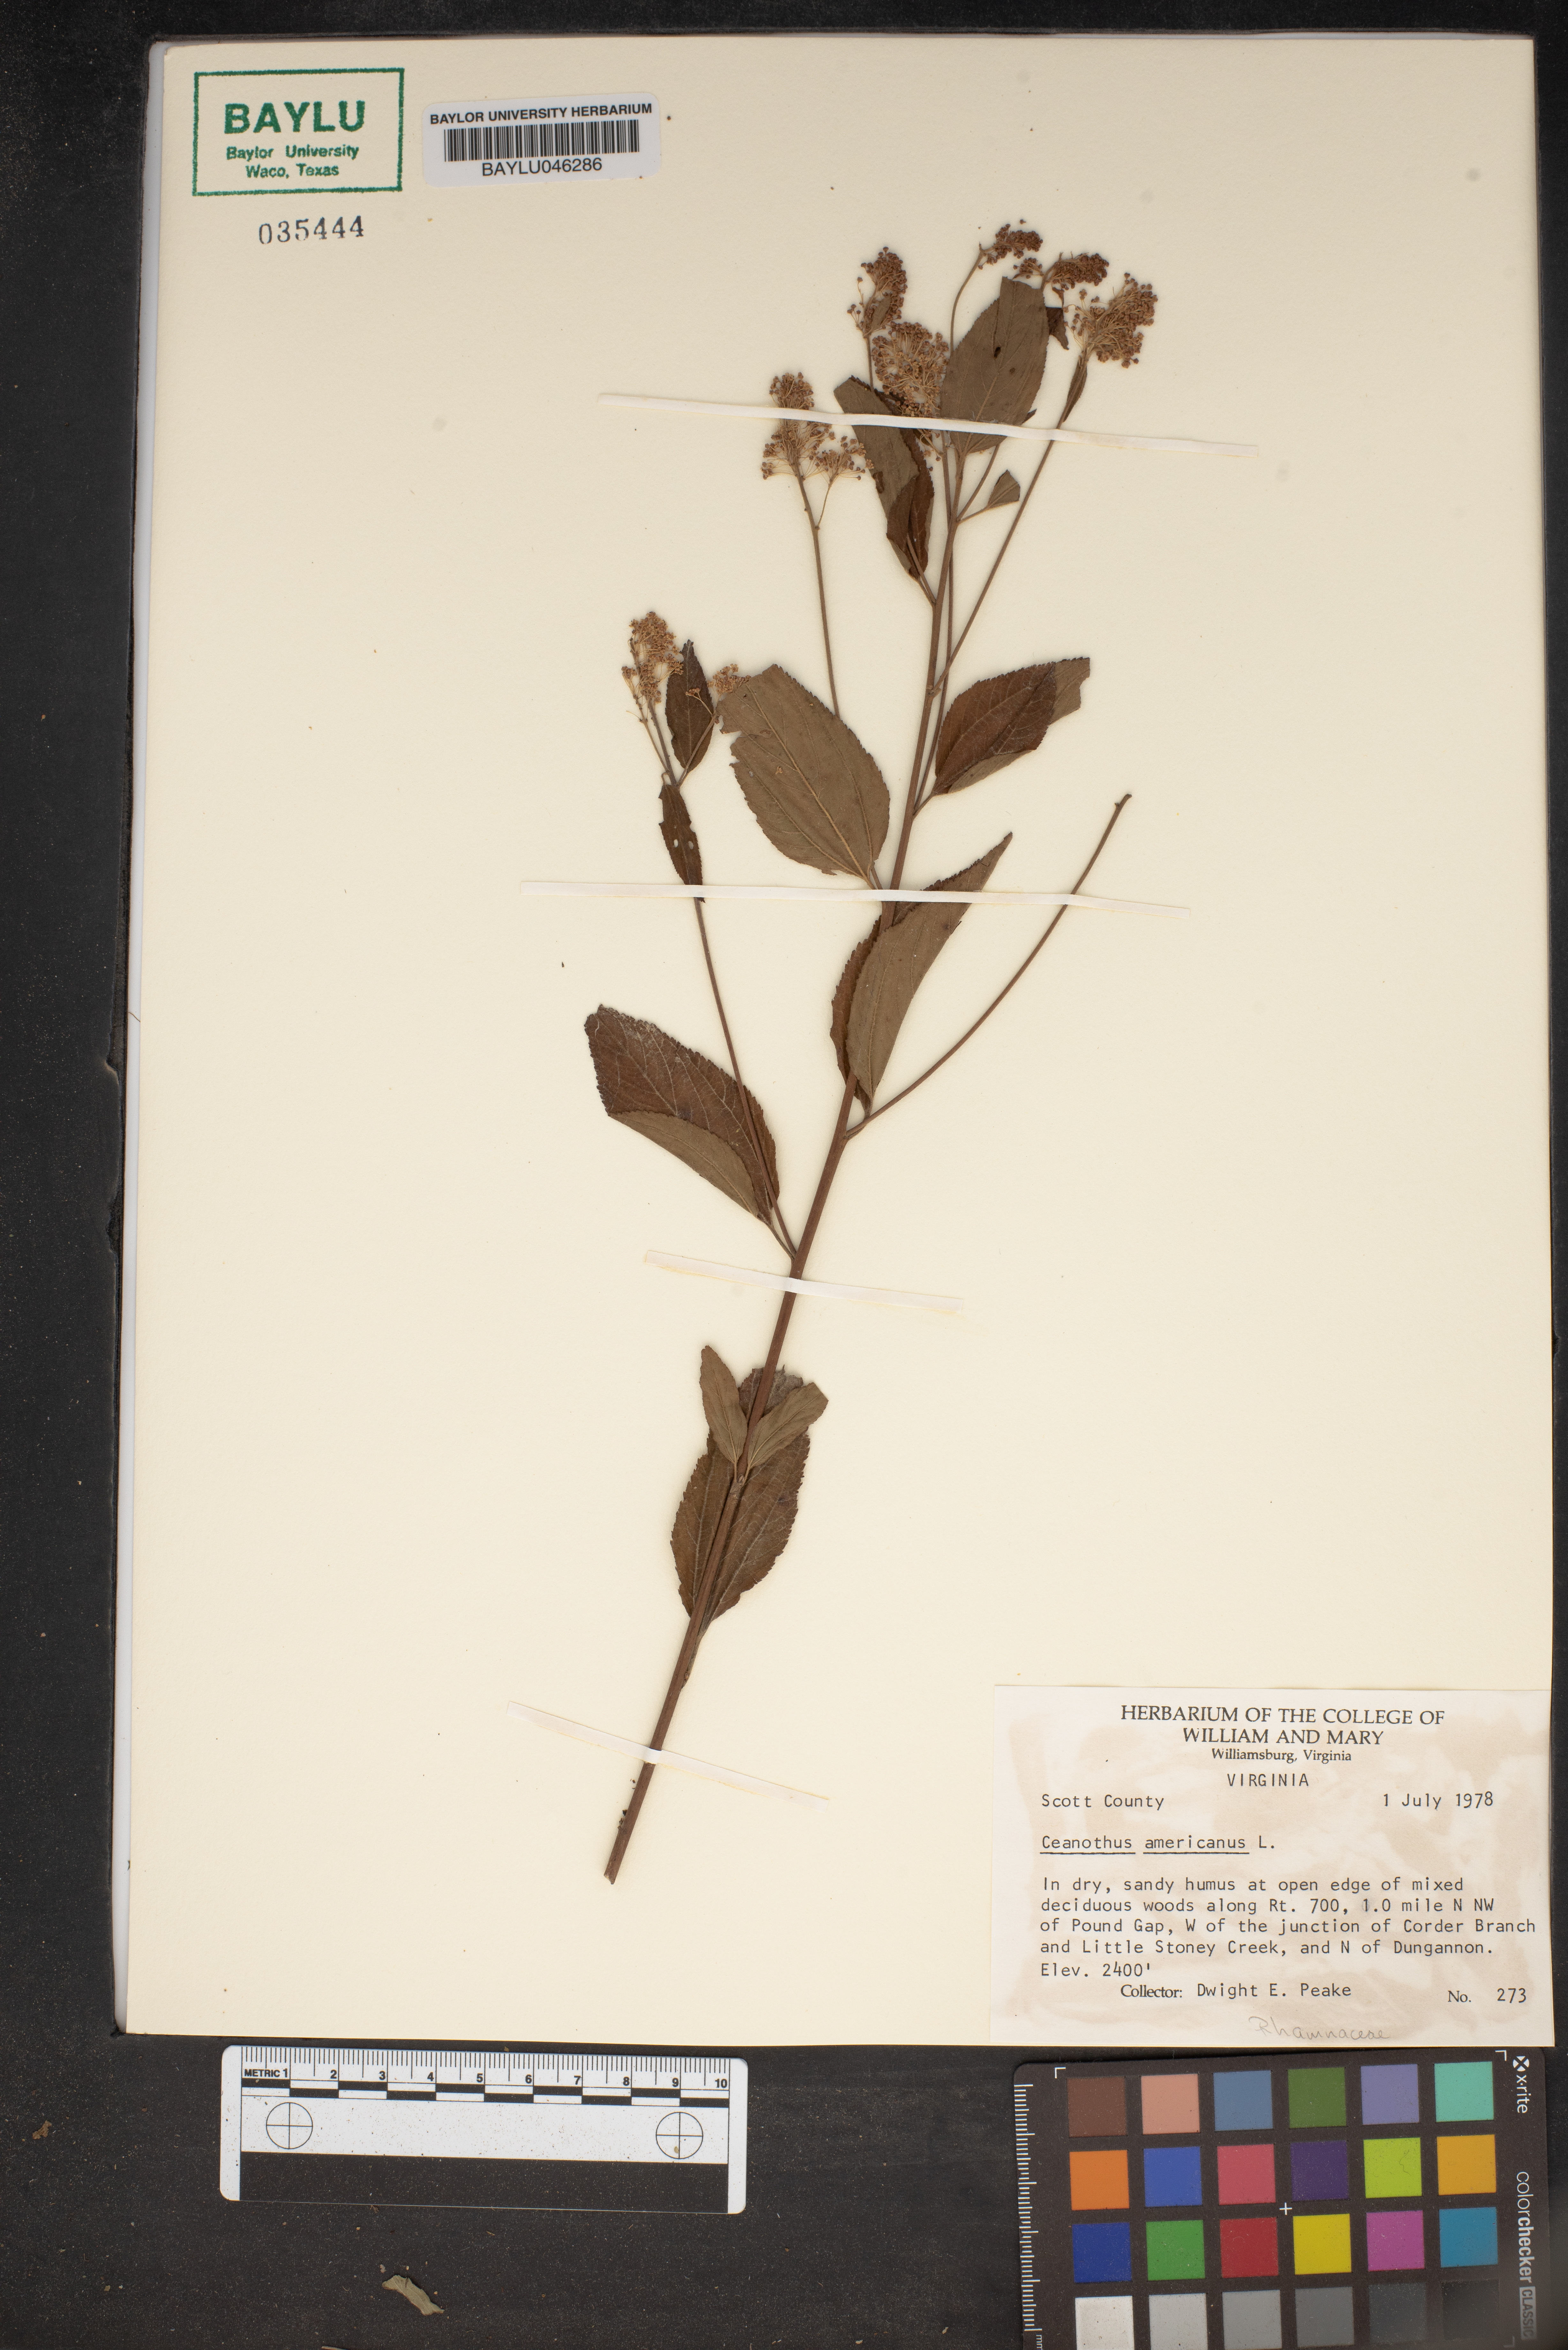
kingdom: Plantae
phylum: Tracheophyta
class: Magnoliopsida
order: Rosales
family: Rhamnaceae
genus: Ceanothus
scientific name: Ceanothus americanus
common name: Redroot
